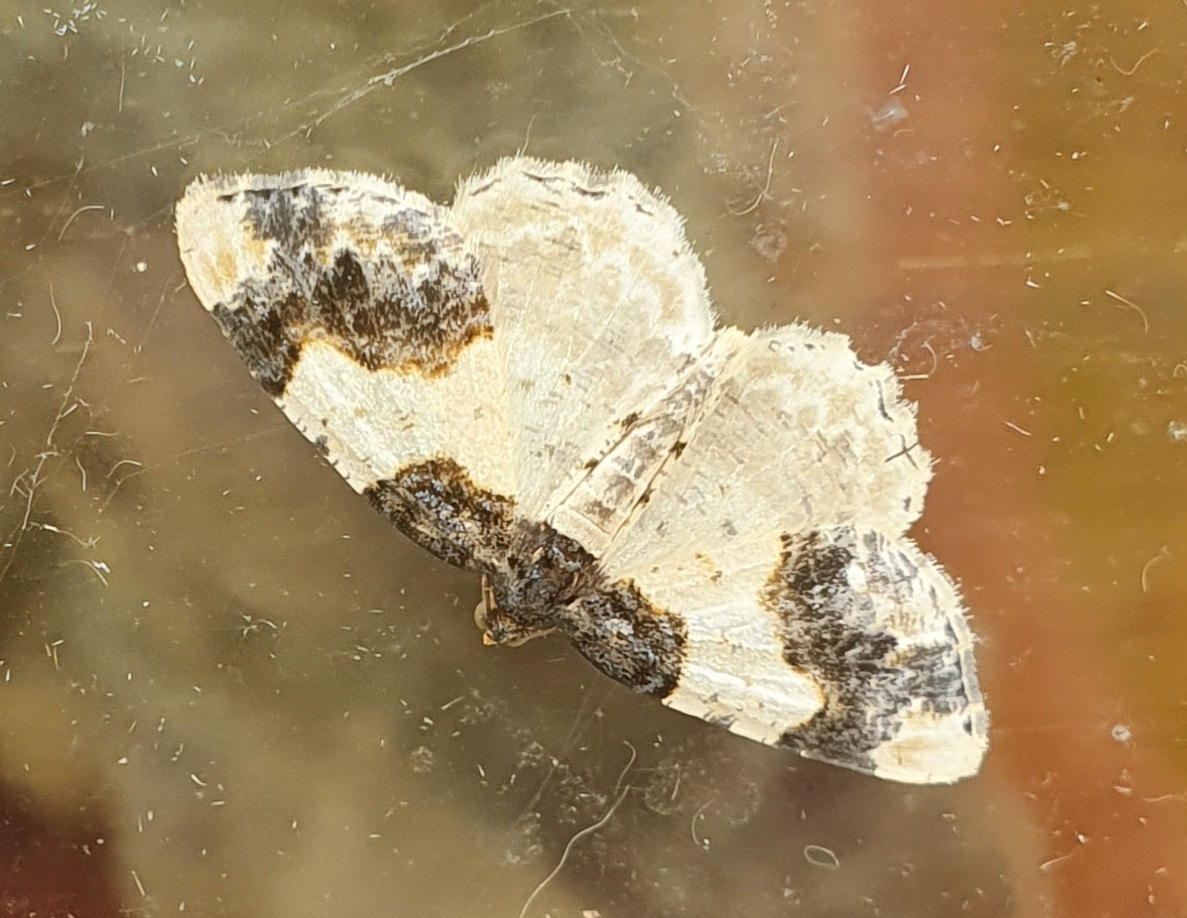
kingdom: Animalia
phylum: Arthropoda
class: Insecta
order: Lepidoptera
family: Geometridae
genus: Ligdia
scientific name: Ligdia adustata
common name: Benvedmåler
